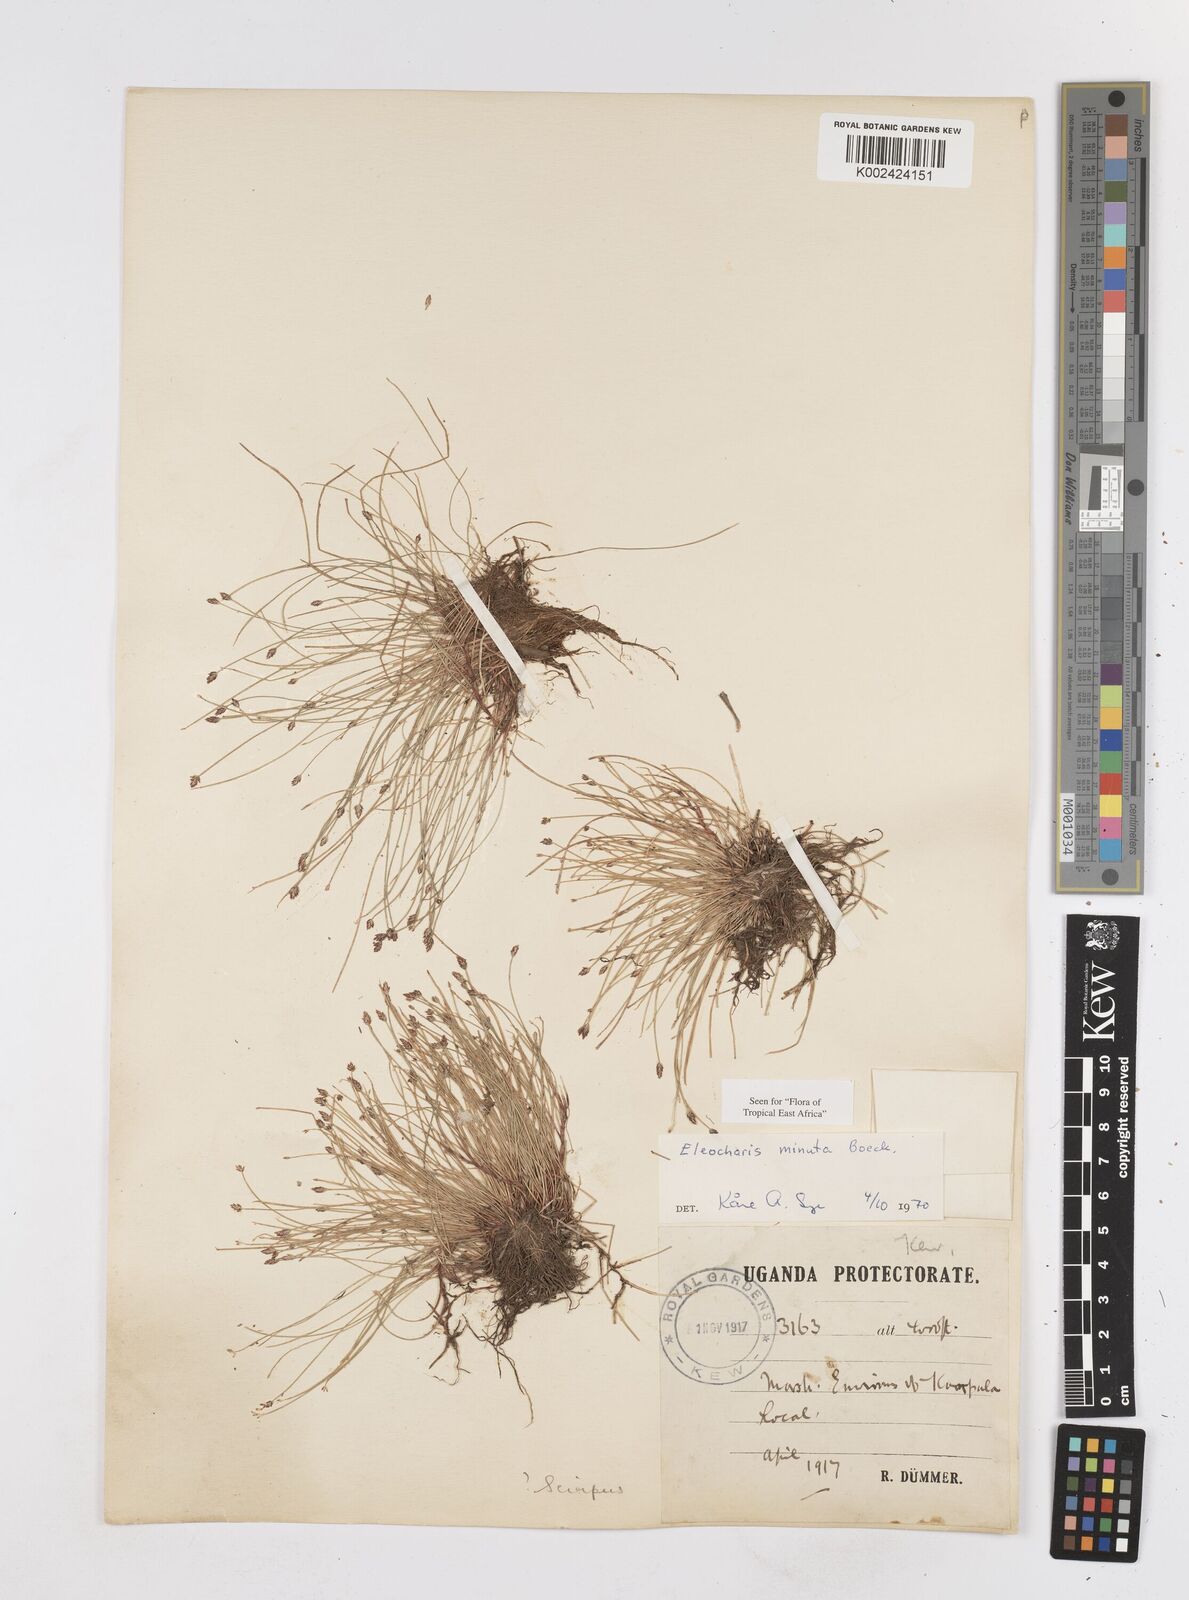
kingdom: Plantae
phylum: Tracheophyta
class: Liliopsida
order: Poales
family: Cyperaceae
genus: Eleocharis
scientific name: Eleocharis minuta
